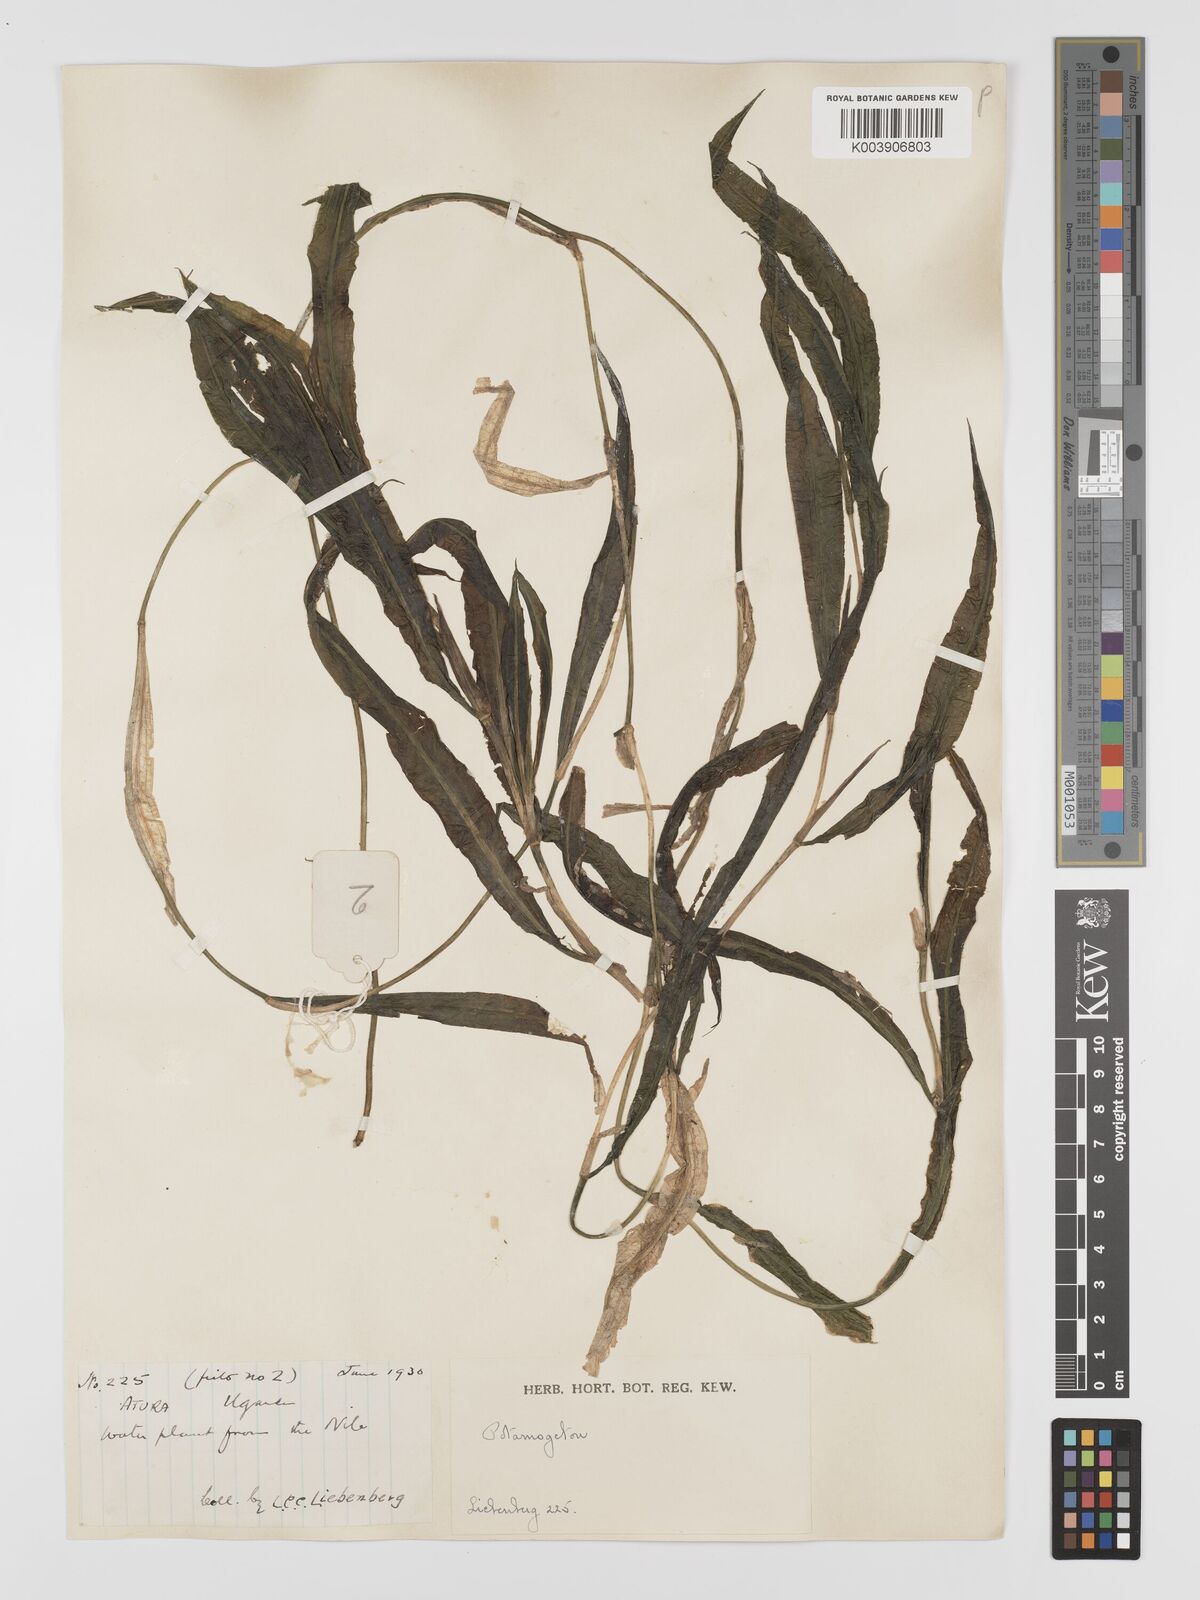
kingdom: Plantae
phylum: Tracheophyta
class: Liliopsida
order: Alismatales
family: Potamogetonaceae
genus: Potamogeton
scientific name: Potamogeton schweinfurthii
